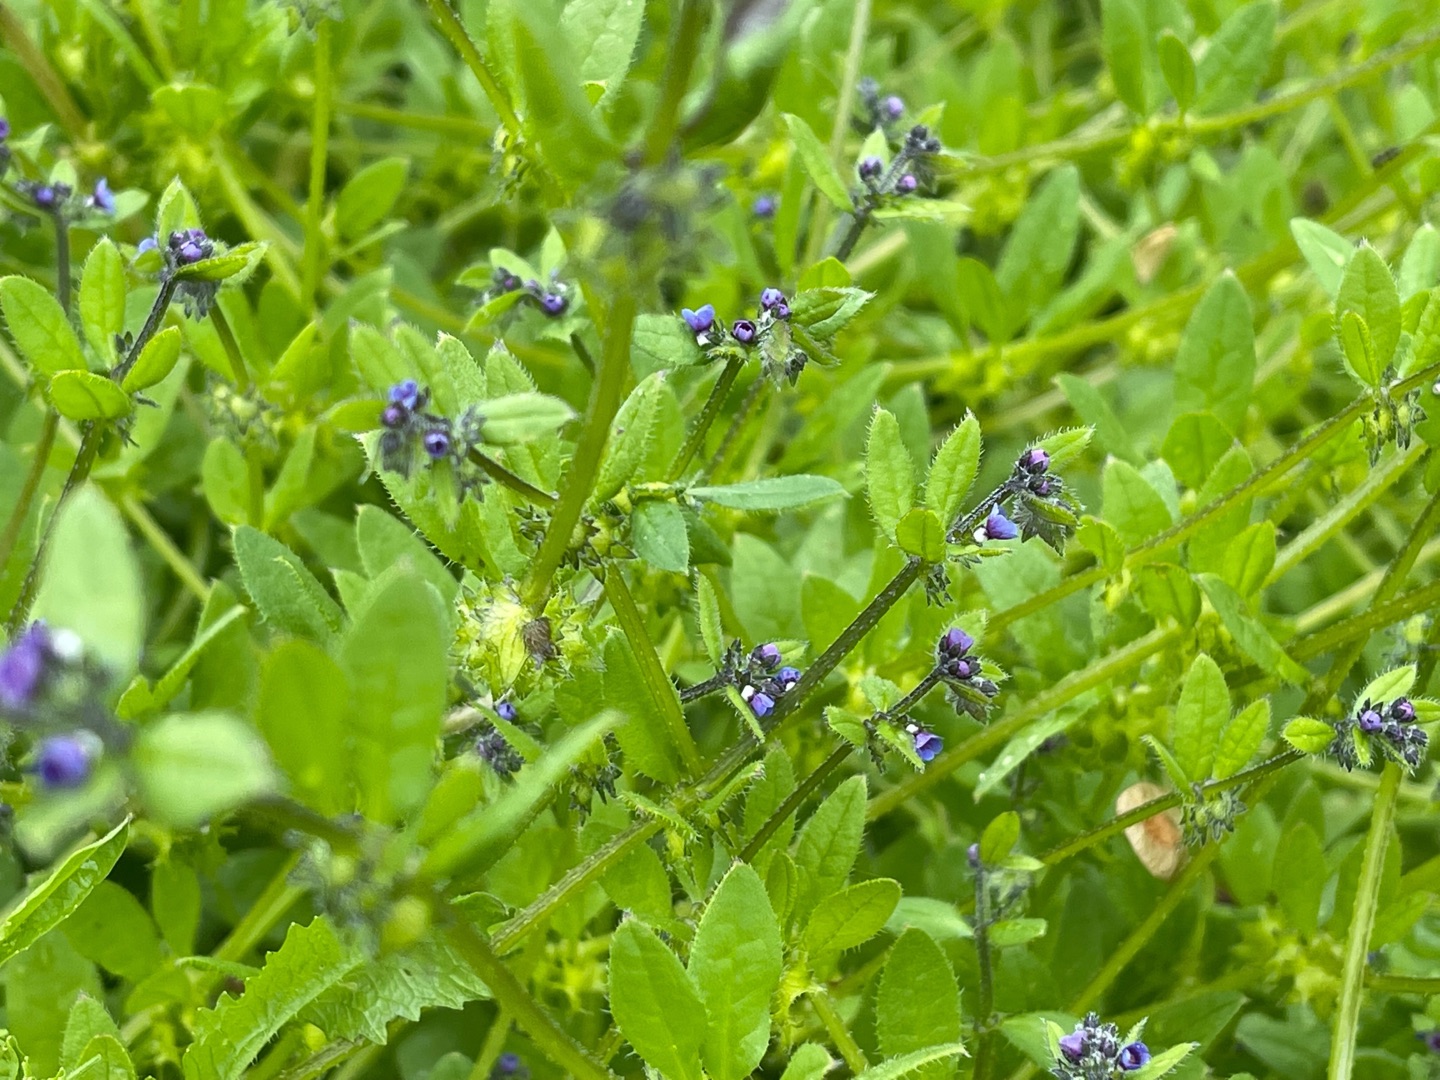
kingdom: Plantae
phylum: Tracheophyta
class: Magnoliopsida
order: Boraginales
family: Boraginaceae
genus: Asperugo
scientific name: Asperugo procumbens
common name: River
